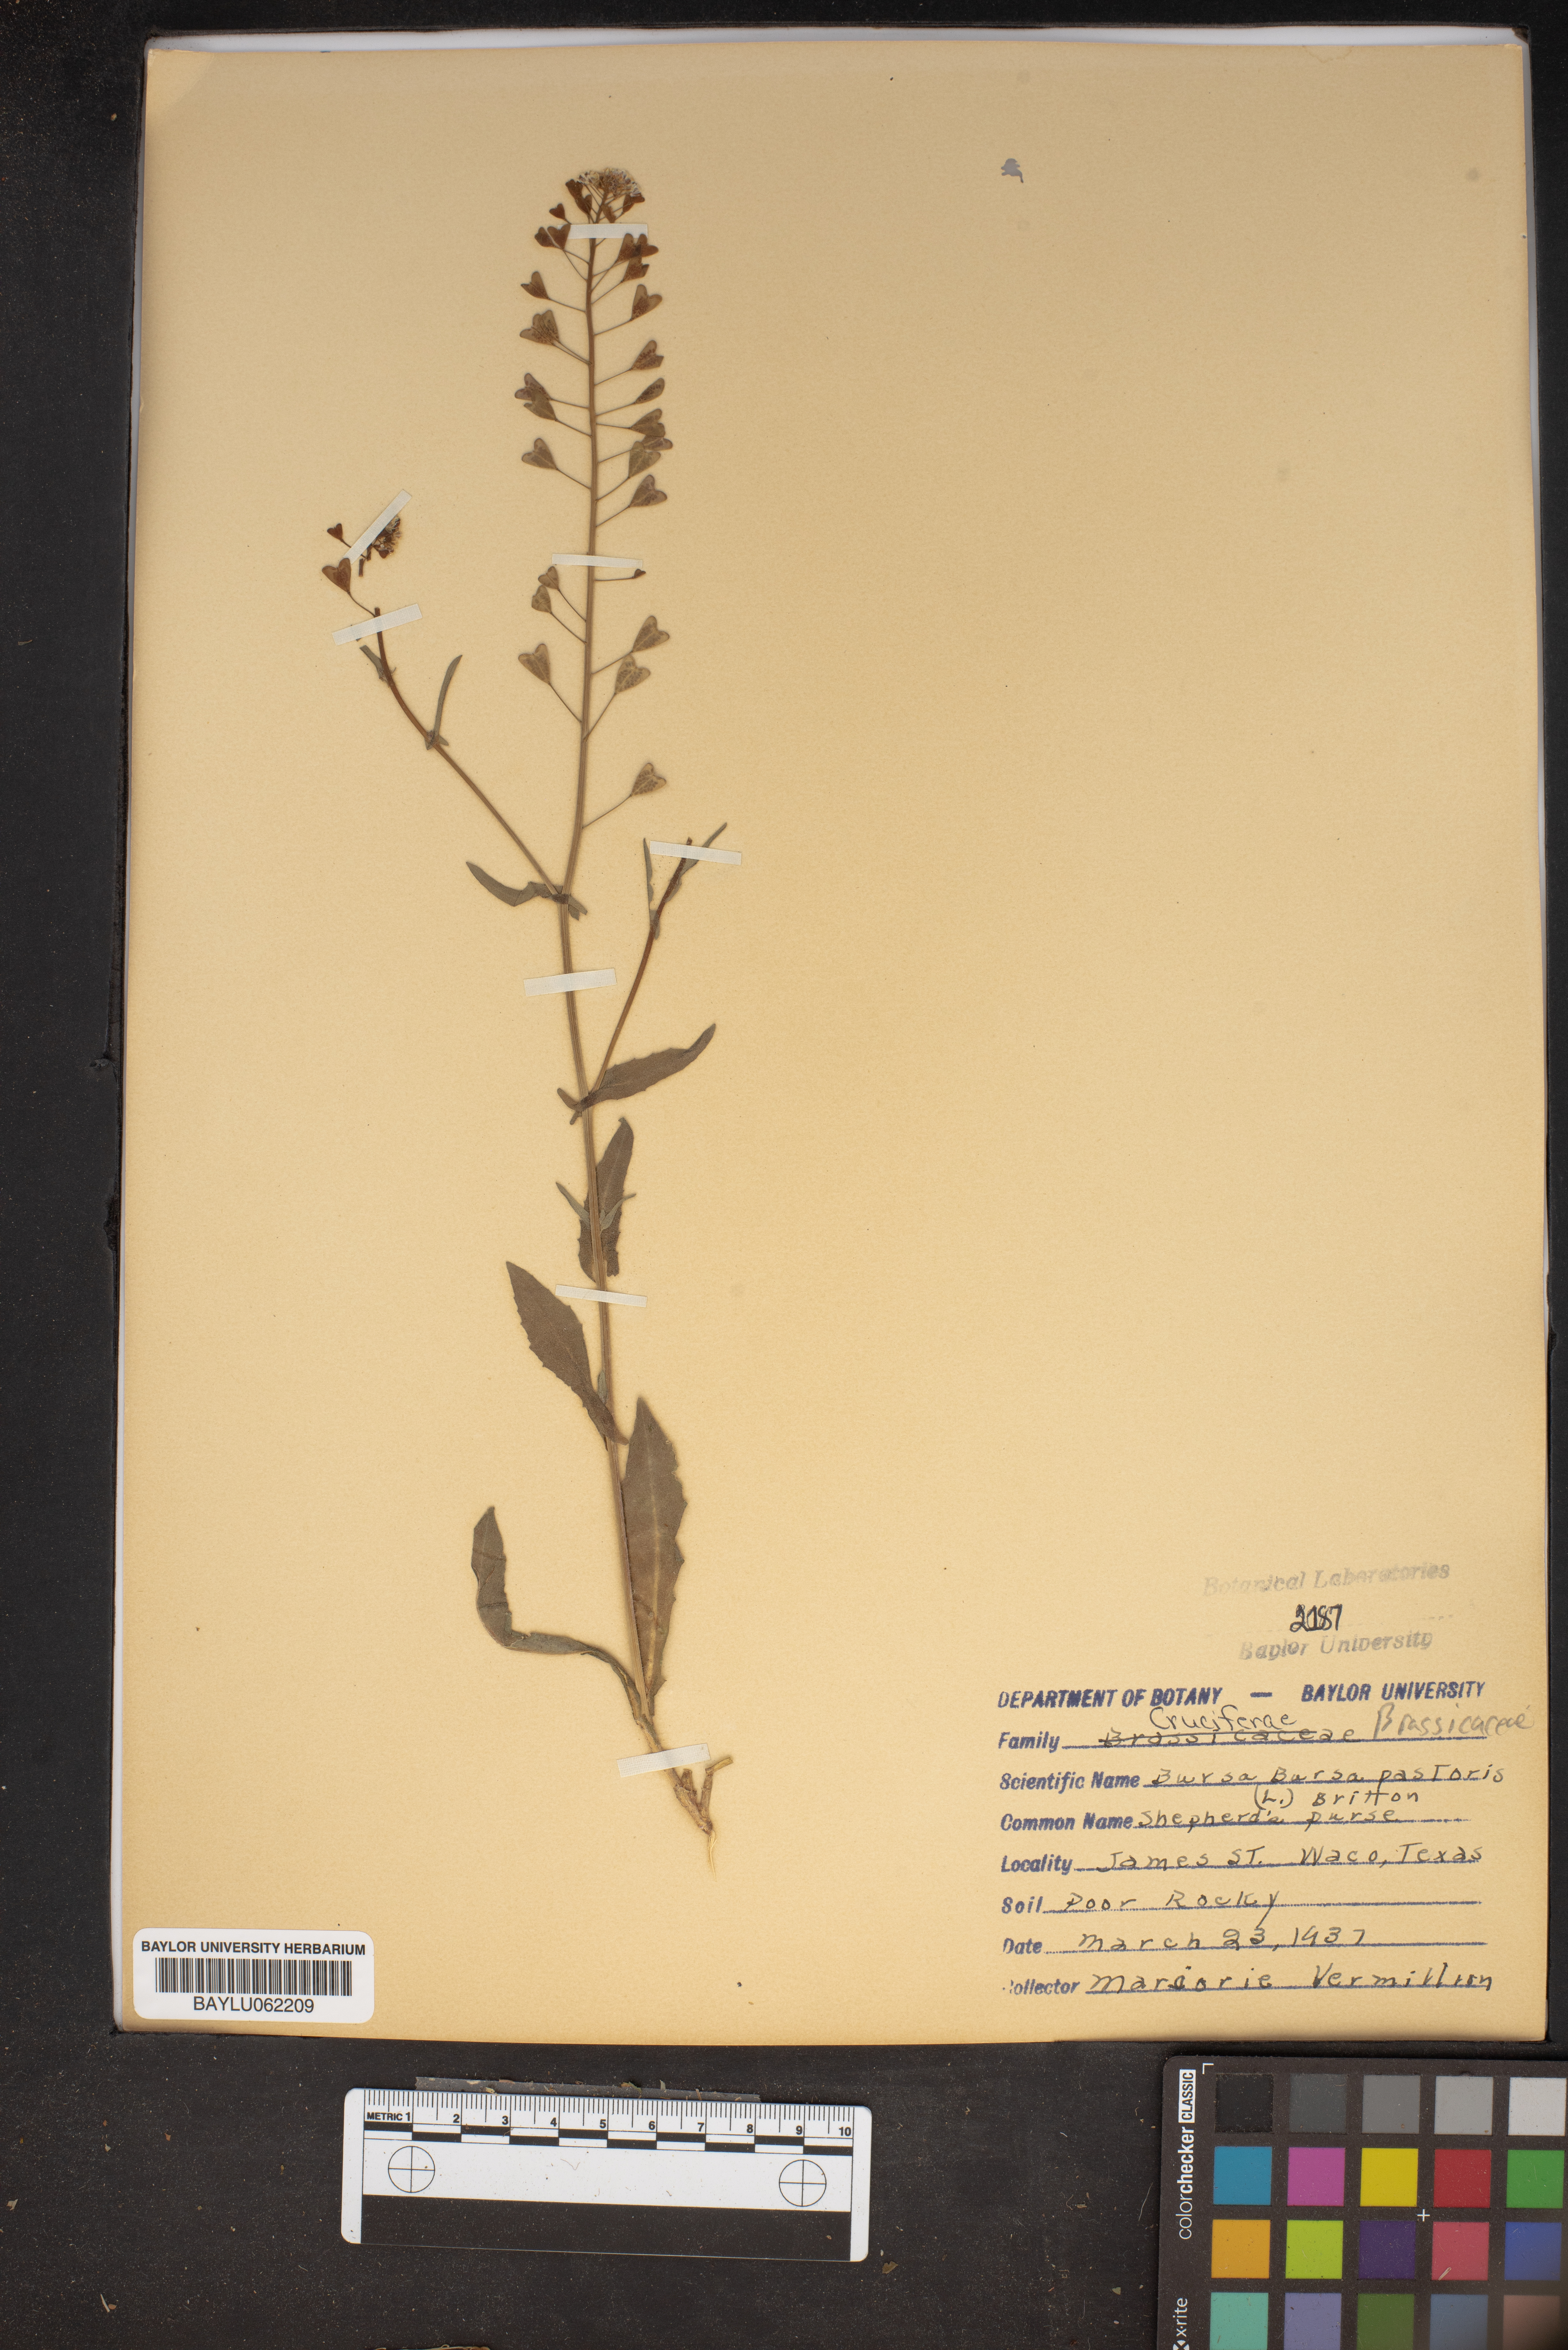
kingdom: Plantae
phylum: Tracheophyta
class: Magnoliopsida
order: Brassicales
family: Brassicaceae
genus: Capsella
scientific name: Capsella bursa-pastoris
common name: Shepherd's purse
